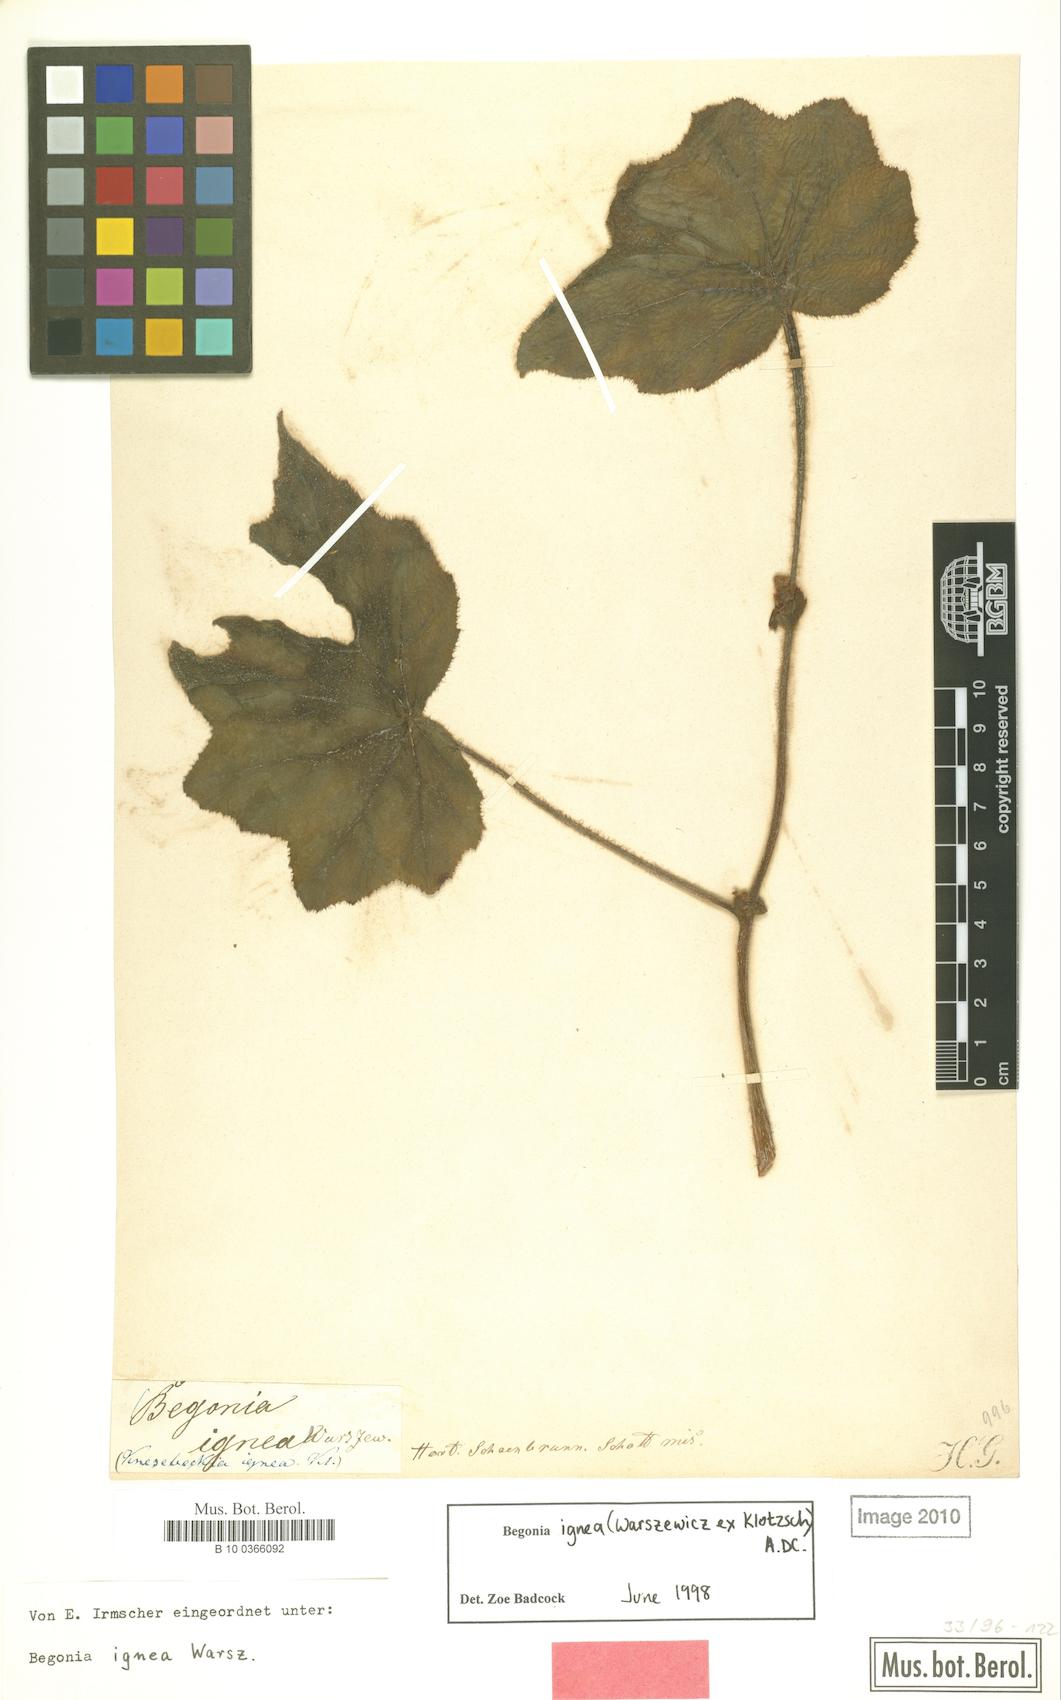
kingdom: Plantae
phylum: Tracheophyta
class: Magnoliopsida
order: Cucurbitales
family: Begoniaceae
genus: Begonia
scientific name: Begonia ignea
